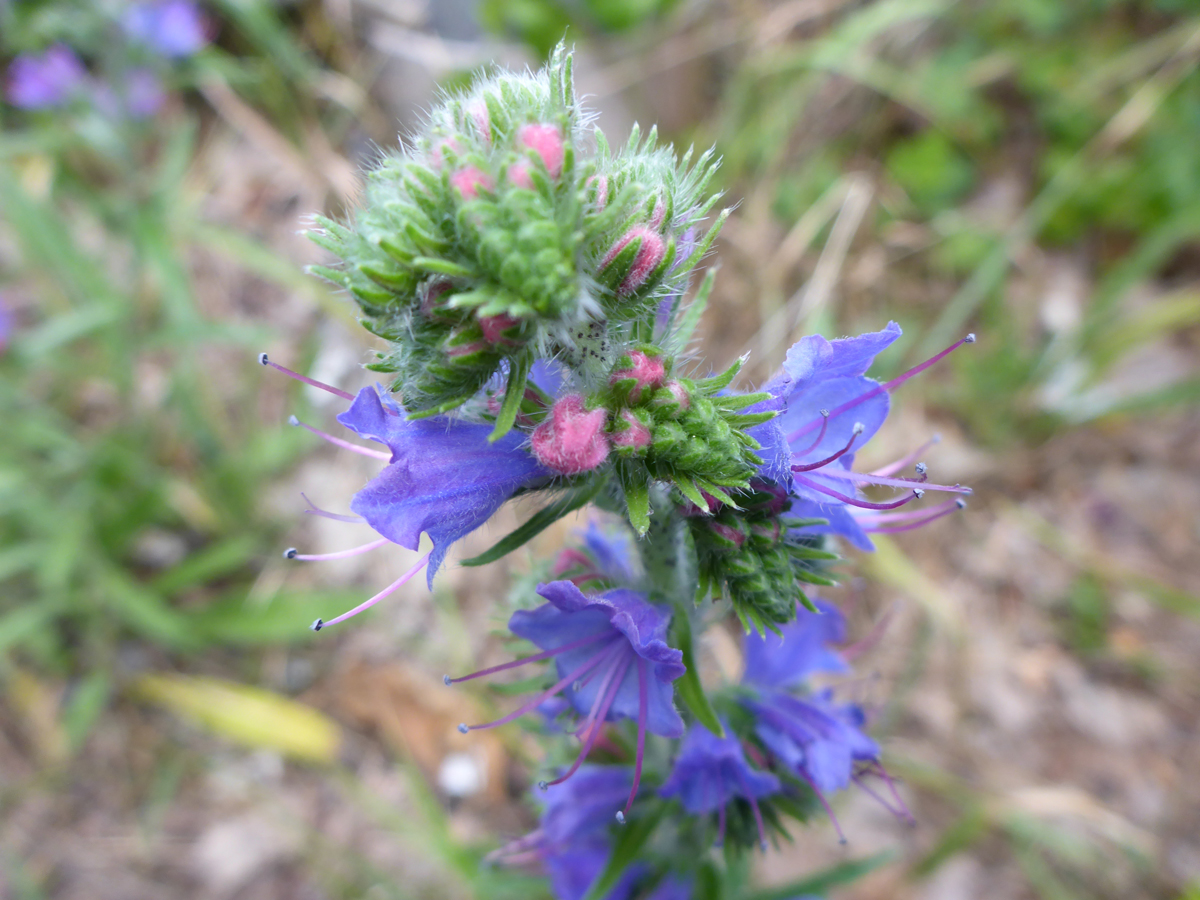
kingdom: Plantae
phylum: Tracheophyta
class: Magnoliopsida
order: Boraginales
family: Boraginaceae
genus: Echium
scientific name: Echium vulgare
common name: Common viper's bugloss
